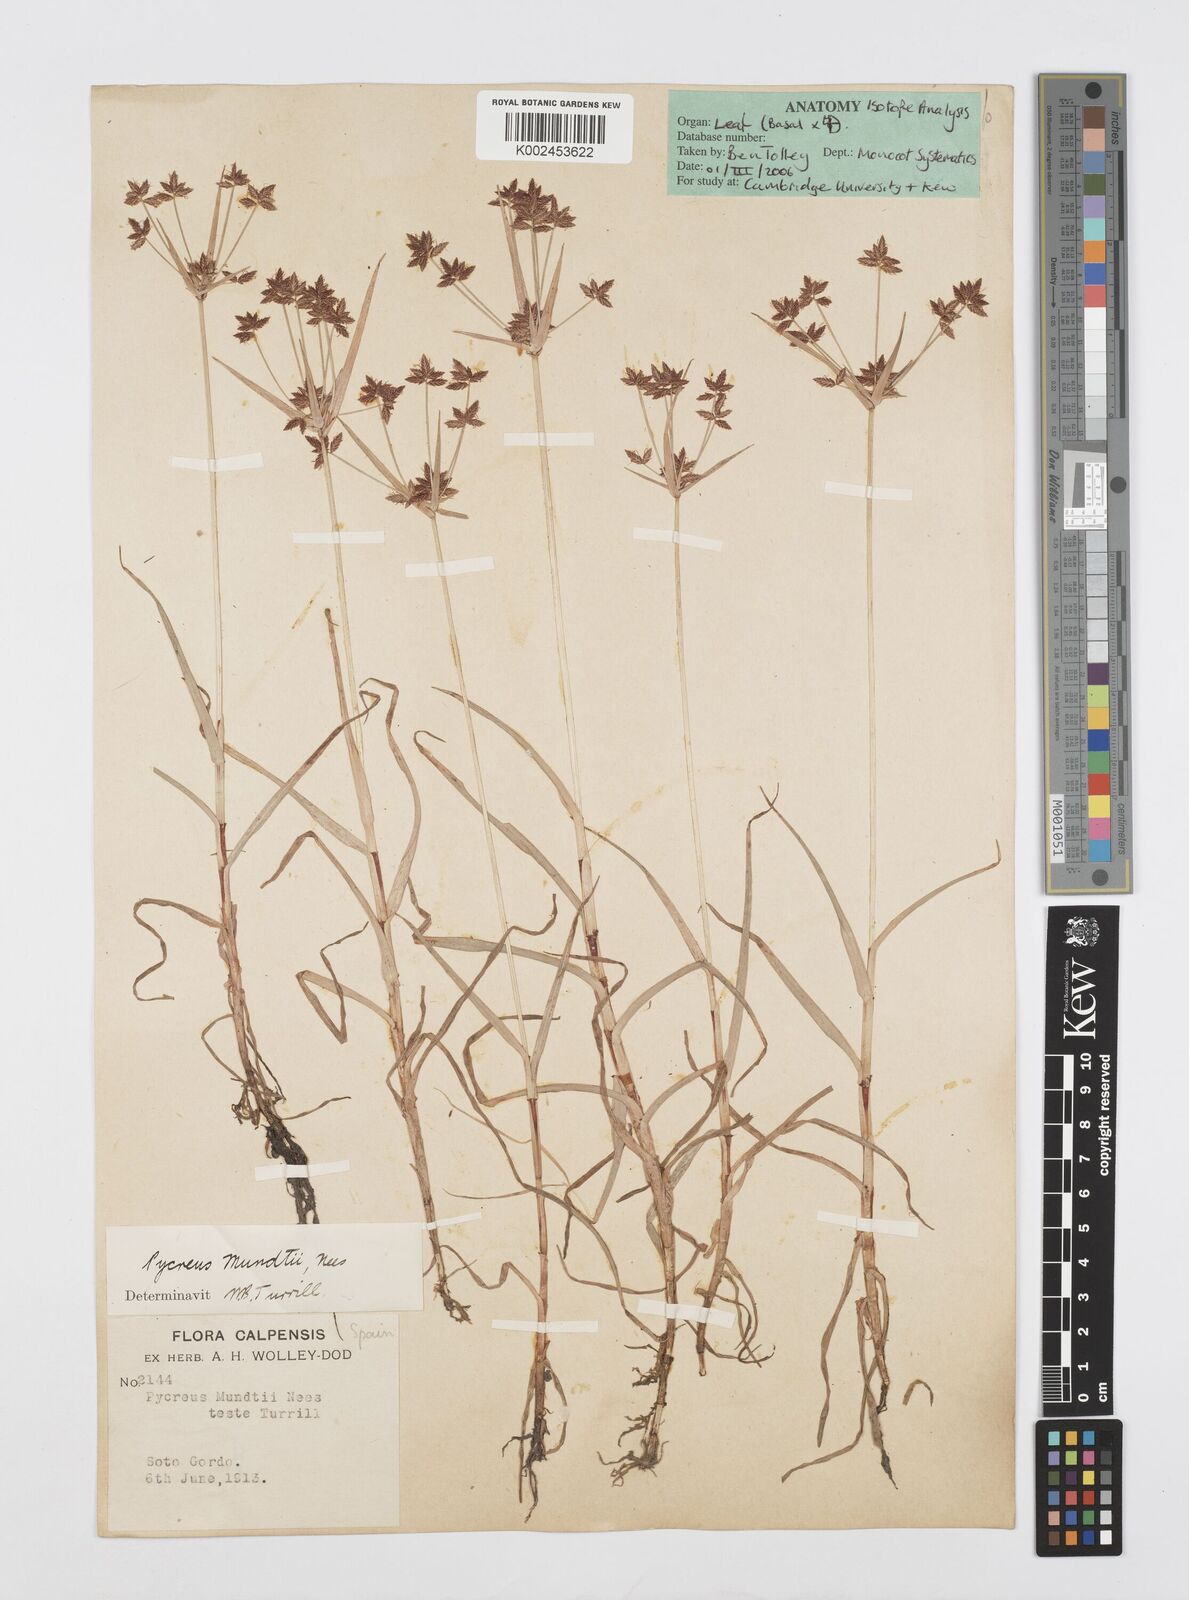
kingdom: Plantae
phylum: Tracheophyta
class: Liliopsida
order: Poales
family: Cyperaceae
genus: Cyperus
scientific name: Cyperus mundii
